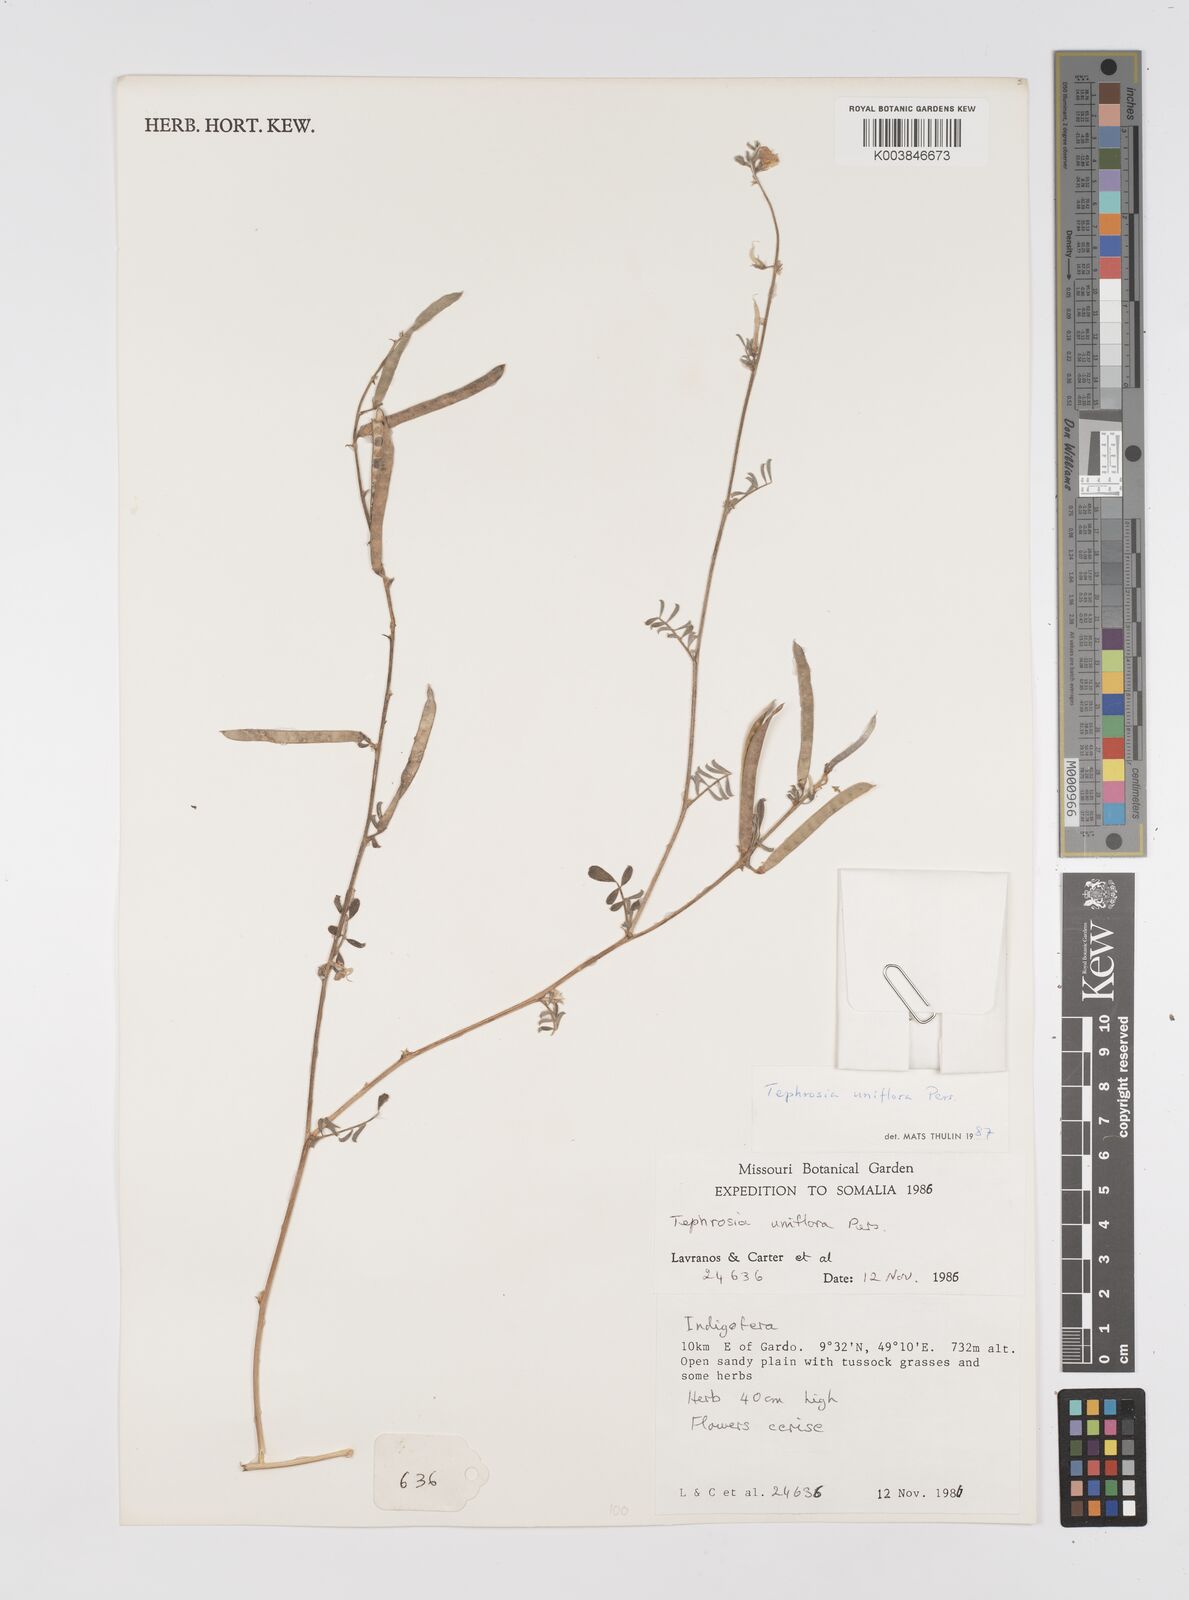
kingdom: Plantae
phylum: Tracheophyta
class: Magnoliopsida
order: Fabales
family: Fabaceae
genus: Tephrosia
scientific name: Tephrosia uniflora
